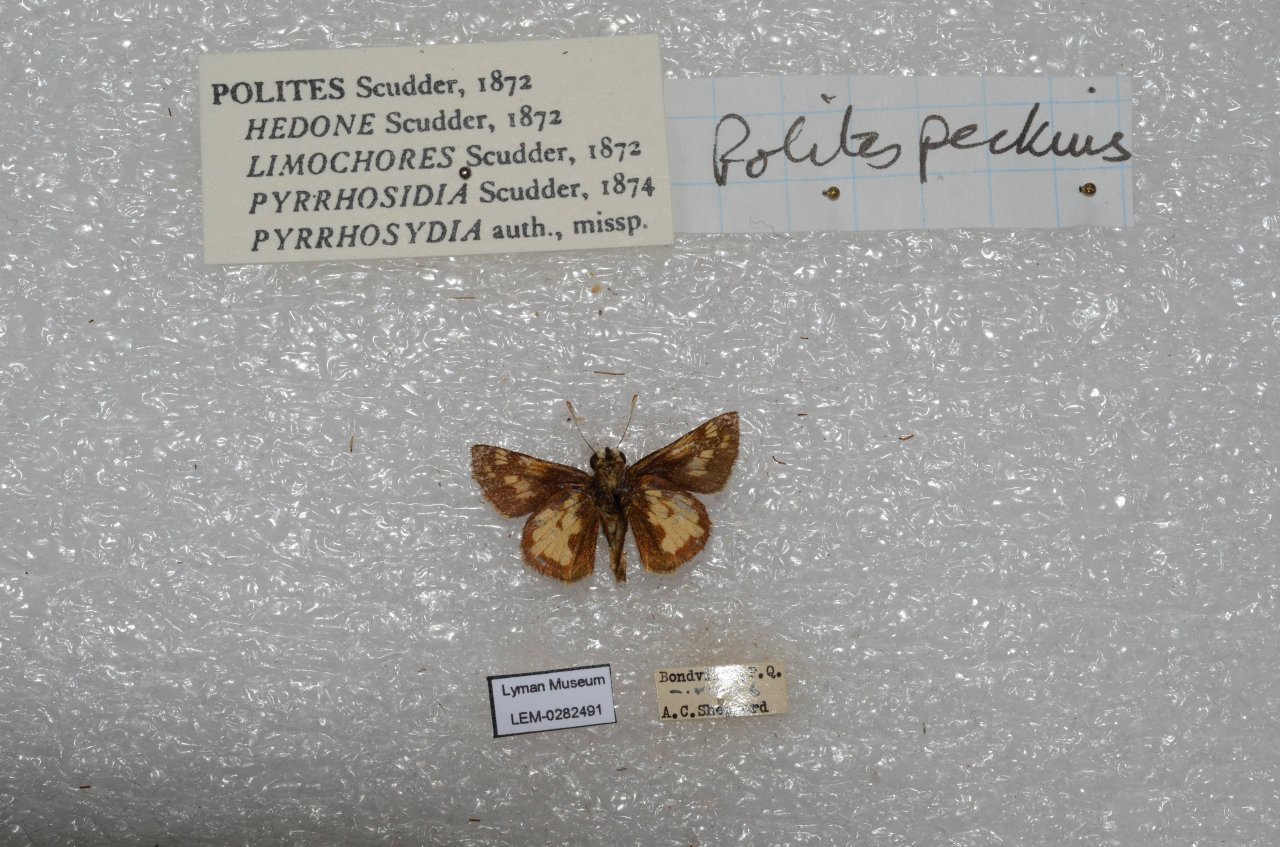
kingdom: Animalia
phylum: Arthropoda
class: Insecta
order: Lepidoptera
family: Hesperiidae
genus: Polites
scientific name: Polites coras
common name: Peck's Skipper
